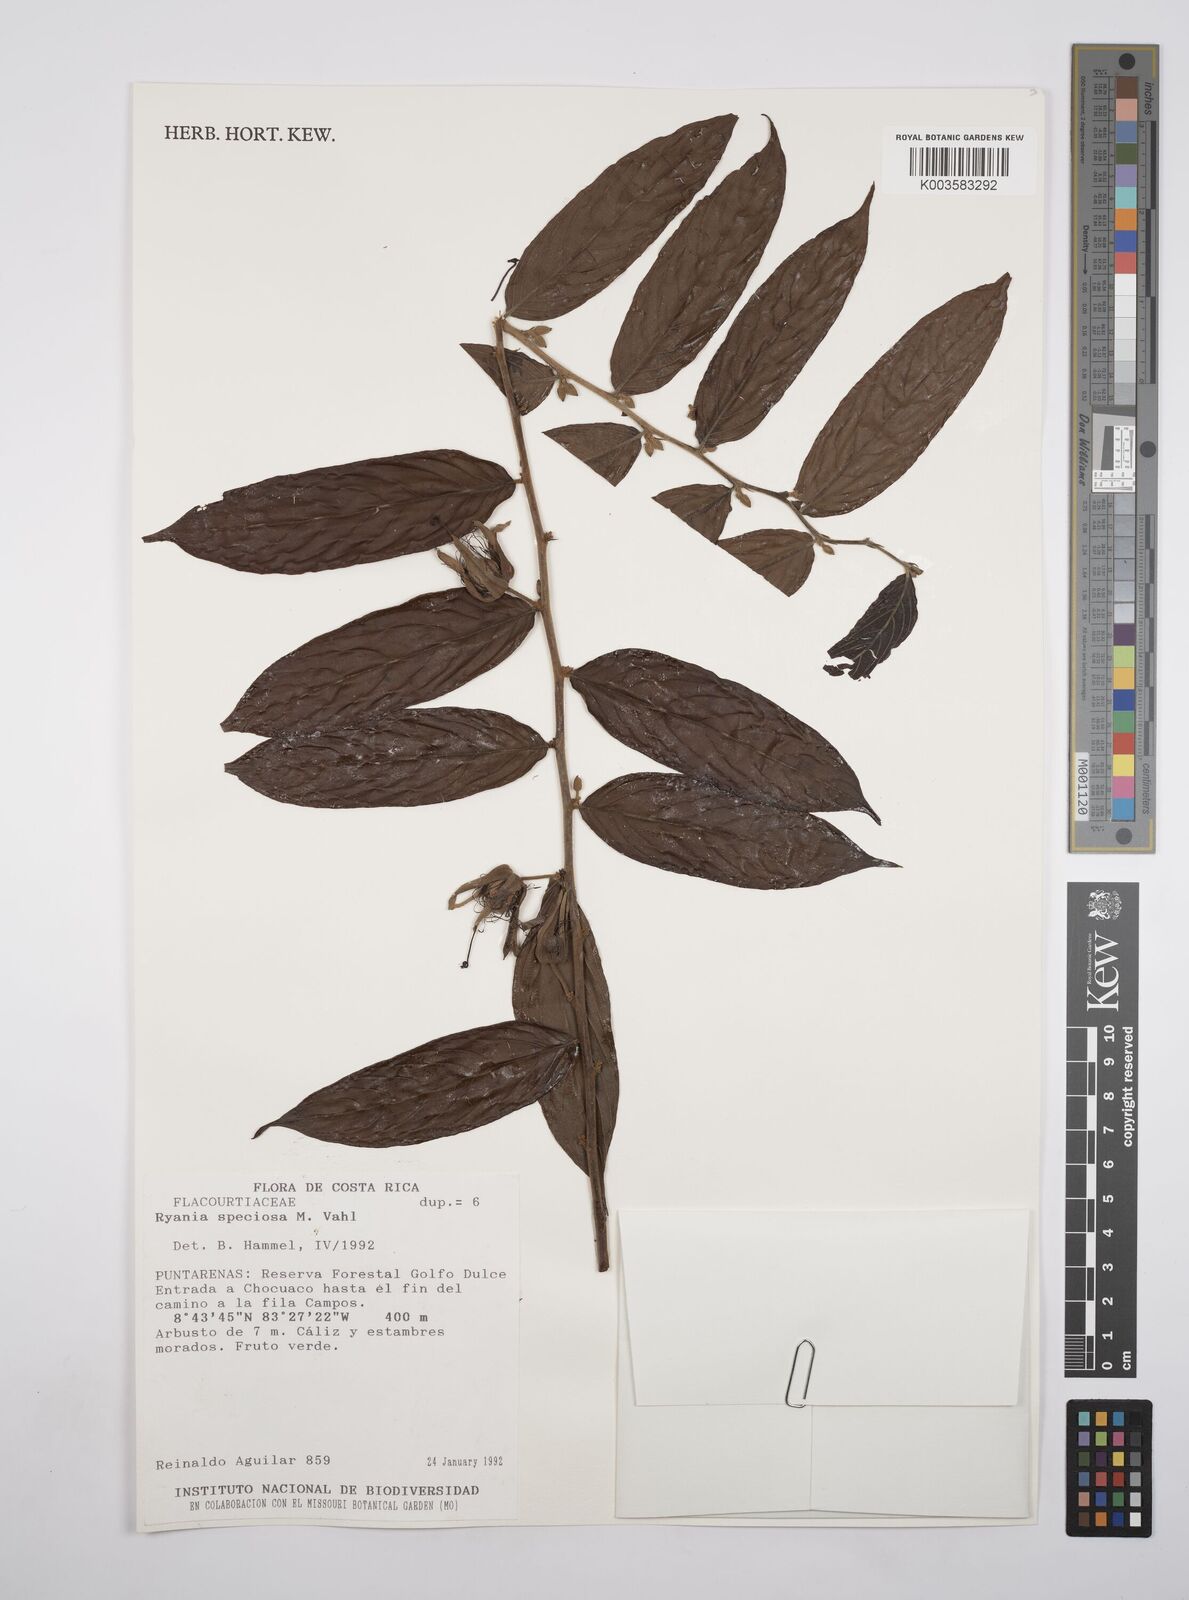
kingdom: Plantae
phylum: Tracheophyta
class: Magnoliopsida
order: Malpighiales
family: Salicaceae
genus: Ryania
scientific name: Ryania speciosa
